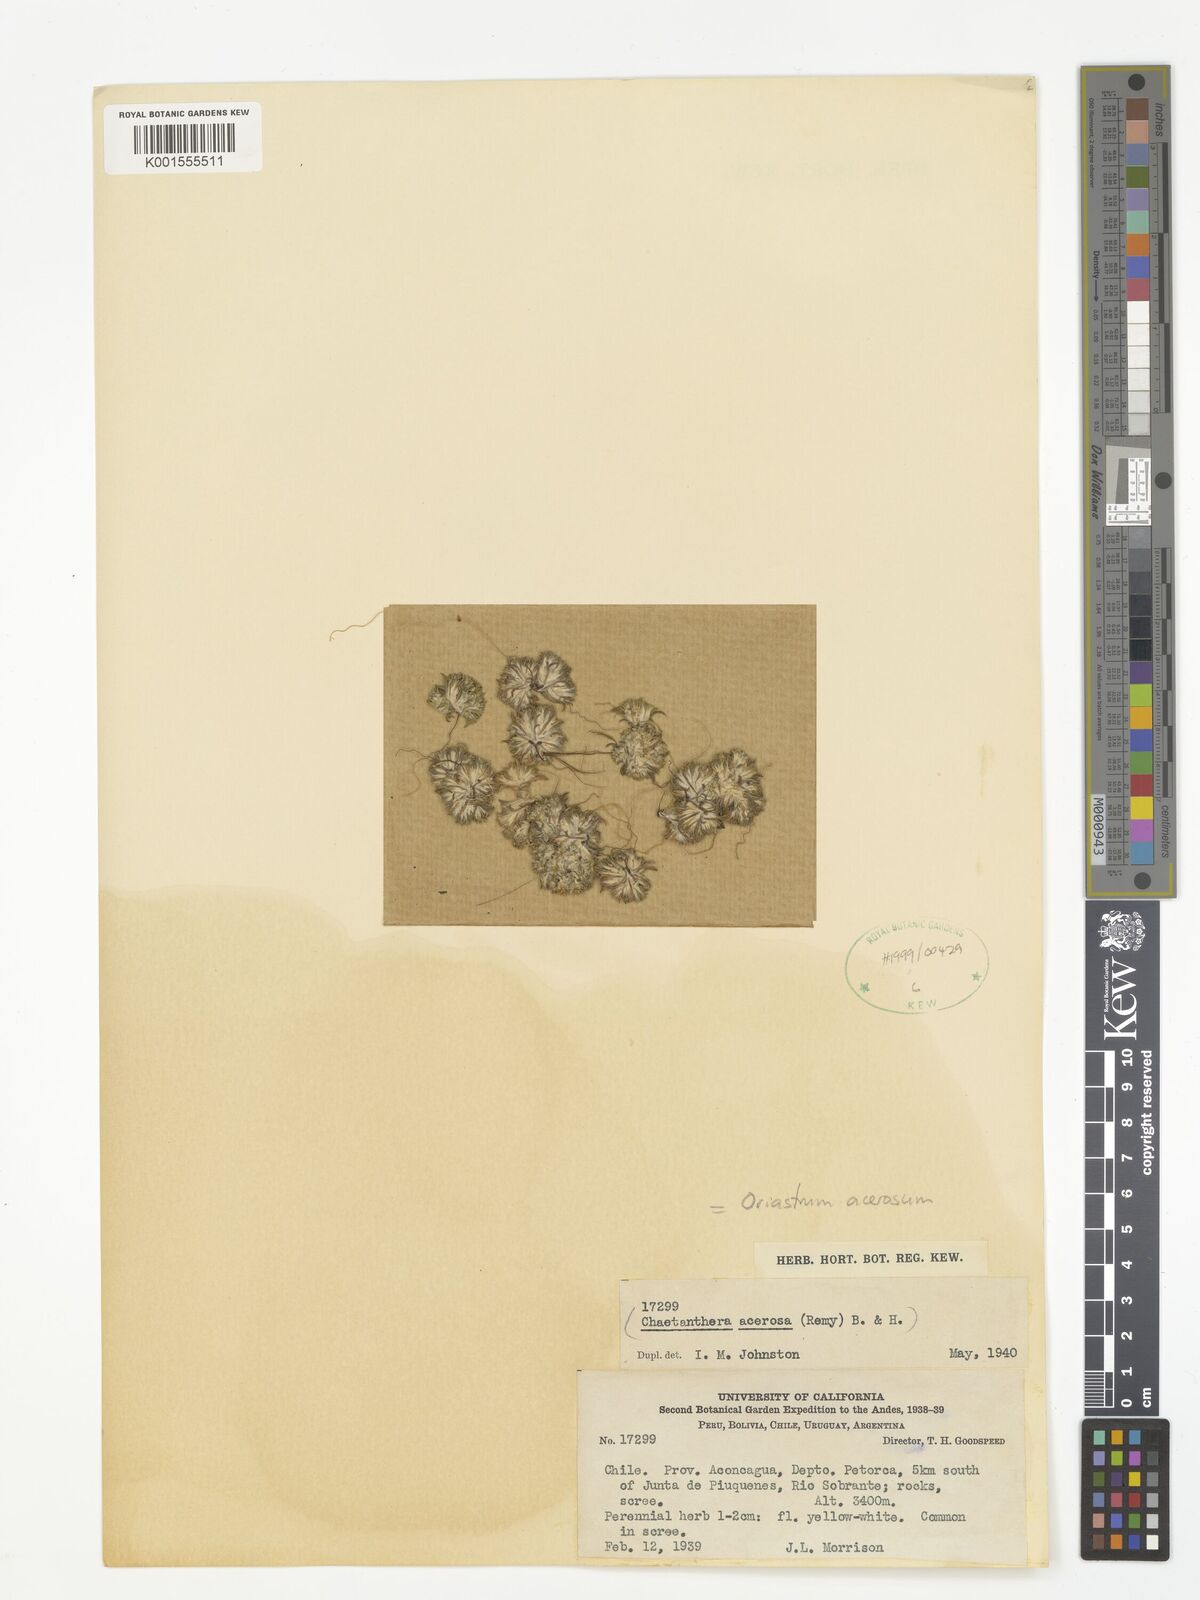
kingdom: Plantae
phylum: Tracheophyta
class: Magnoliopsida
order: Asterales
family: Asteraceae
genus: Oriastrum
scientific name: Oriastrum acerosum
